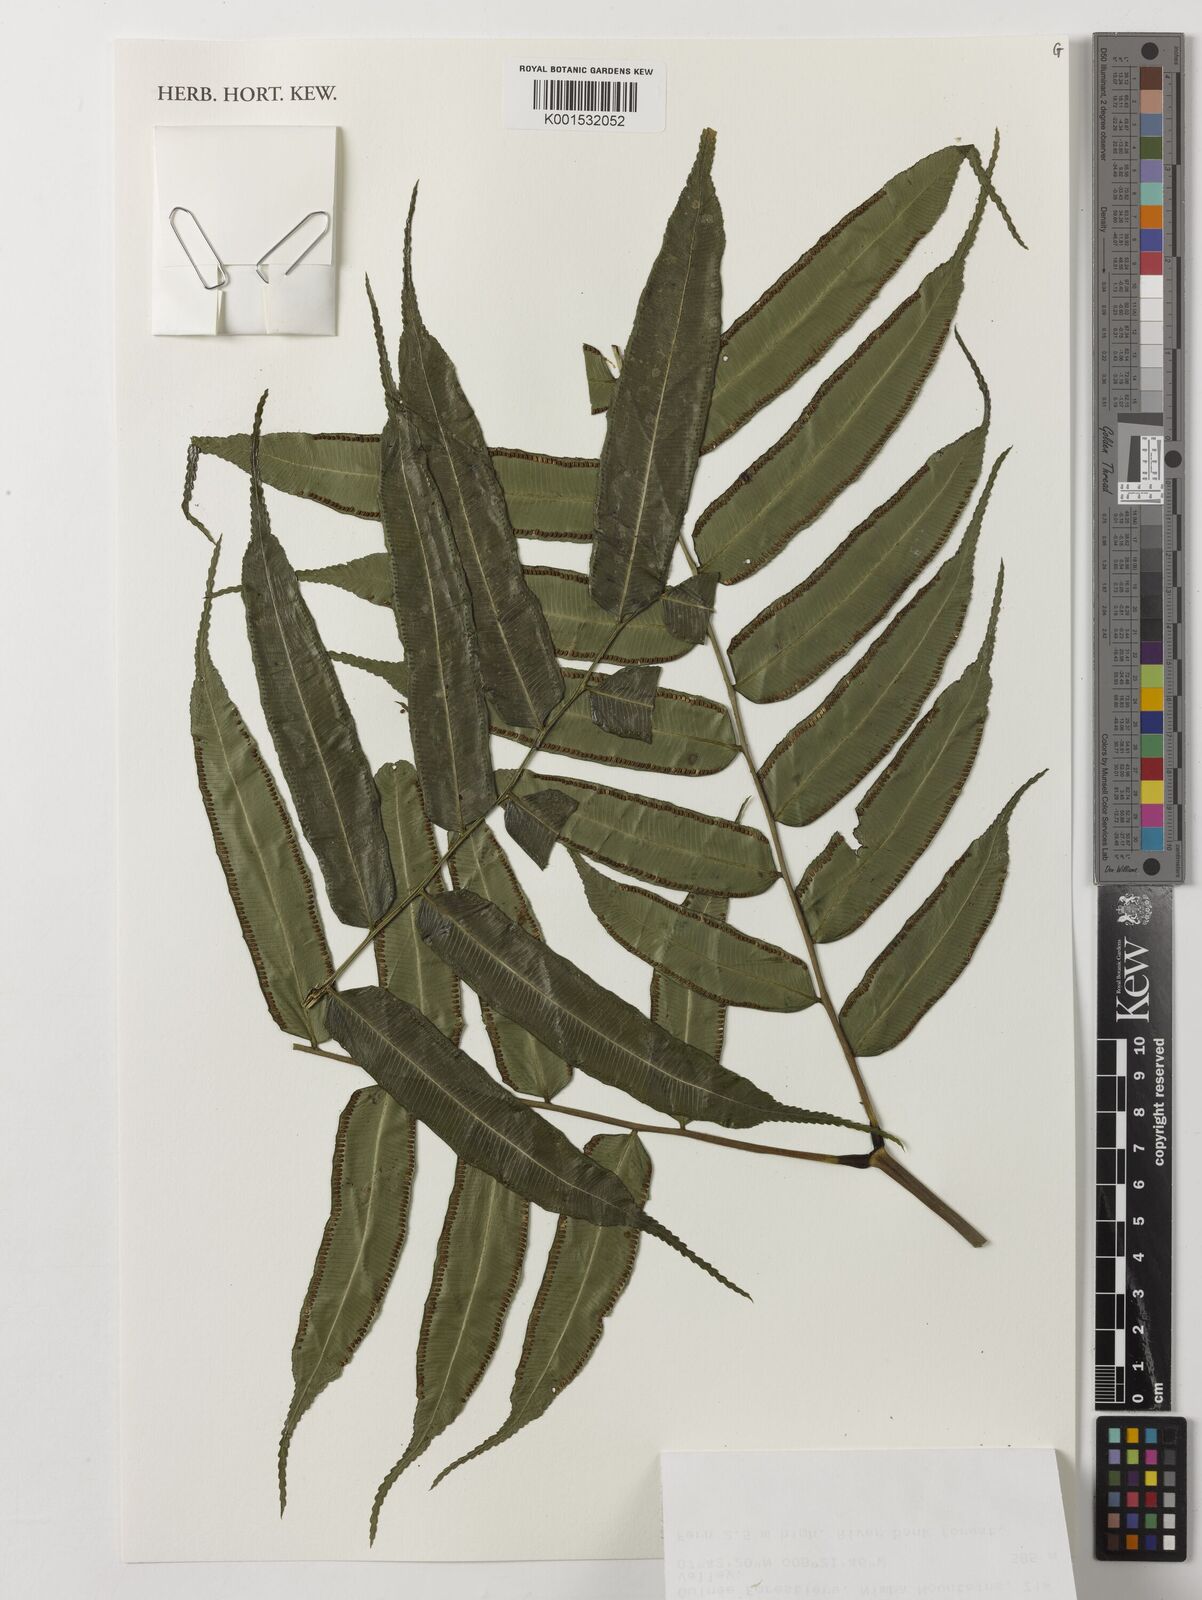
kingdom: Plantae
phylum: Tracheophyta
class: Polypodiopsida
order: Marattiales
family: Marattiaceae
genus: Ptisana
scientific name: Ptisana fraxinea
